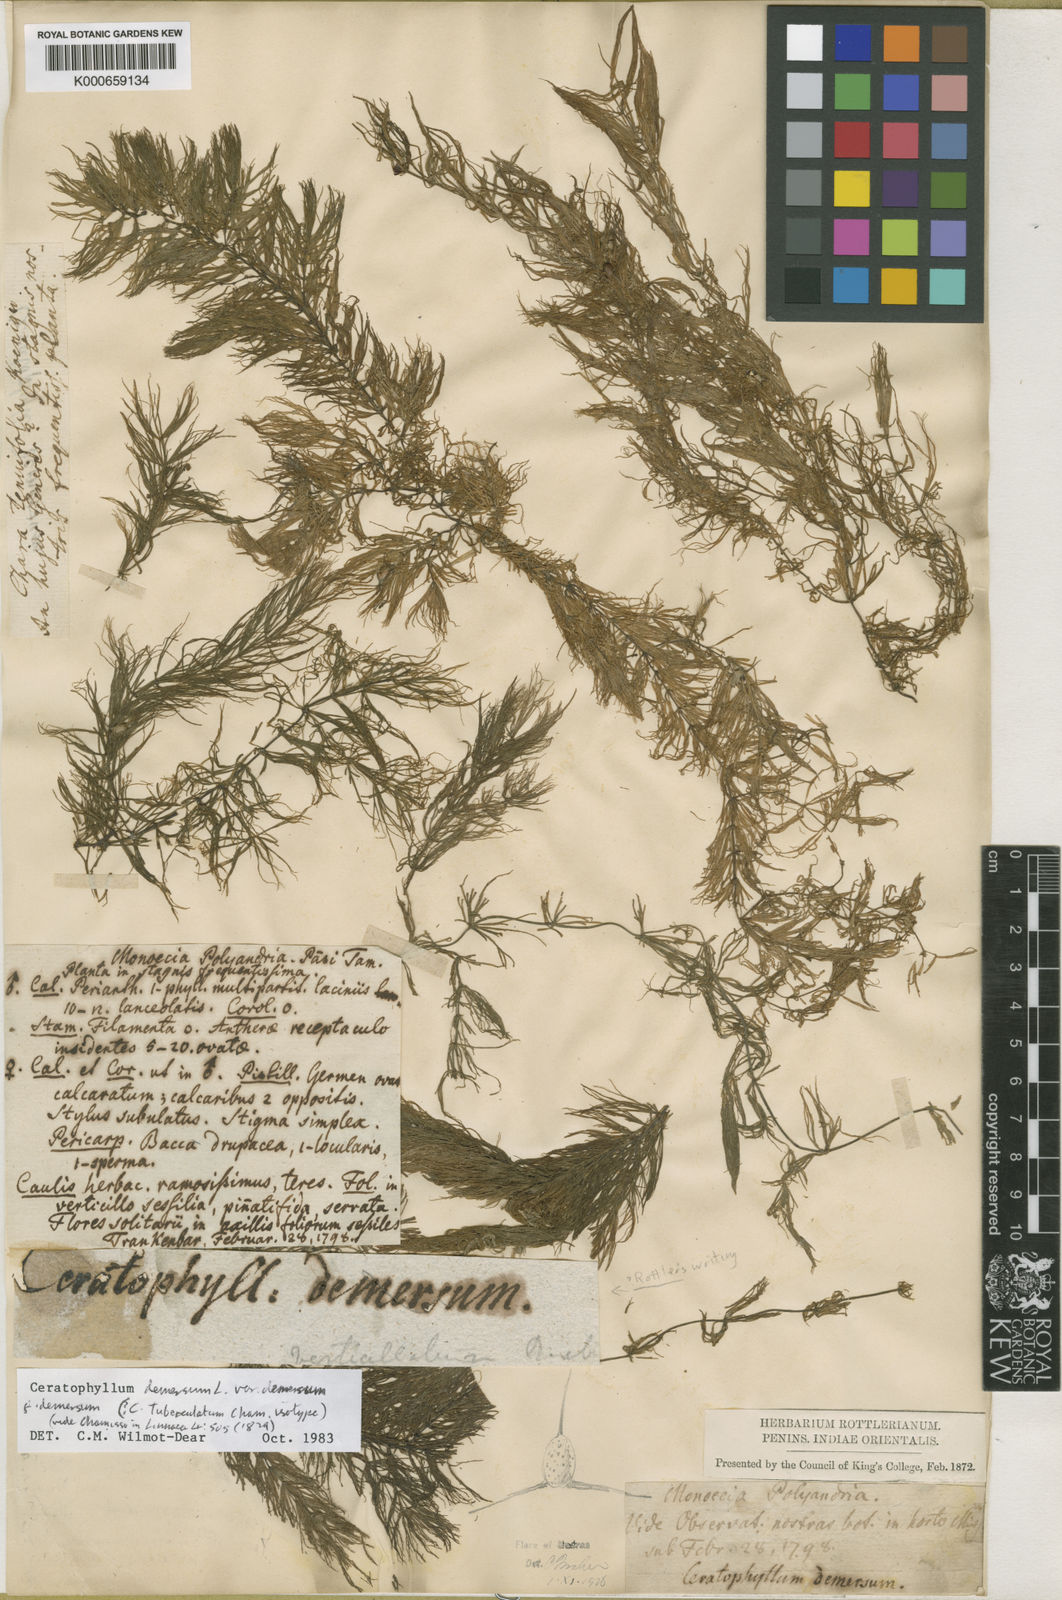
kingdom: Plantae
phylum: Tracheophyta
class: Magnoliopsida
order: Ceratophyllales
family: Ceratophyllaceae
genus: Ceratophyllum
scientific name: Ceratophyllum demersum
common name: Rigid hornwort
